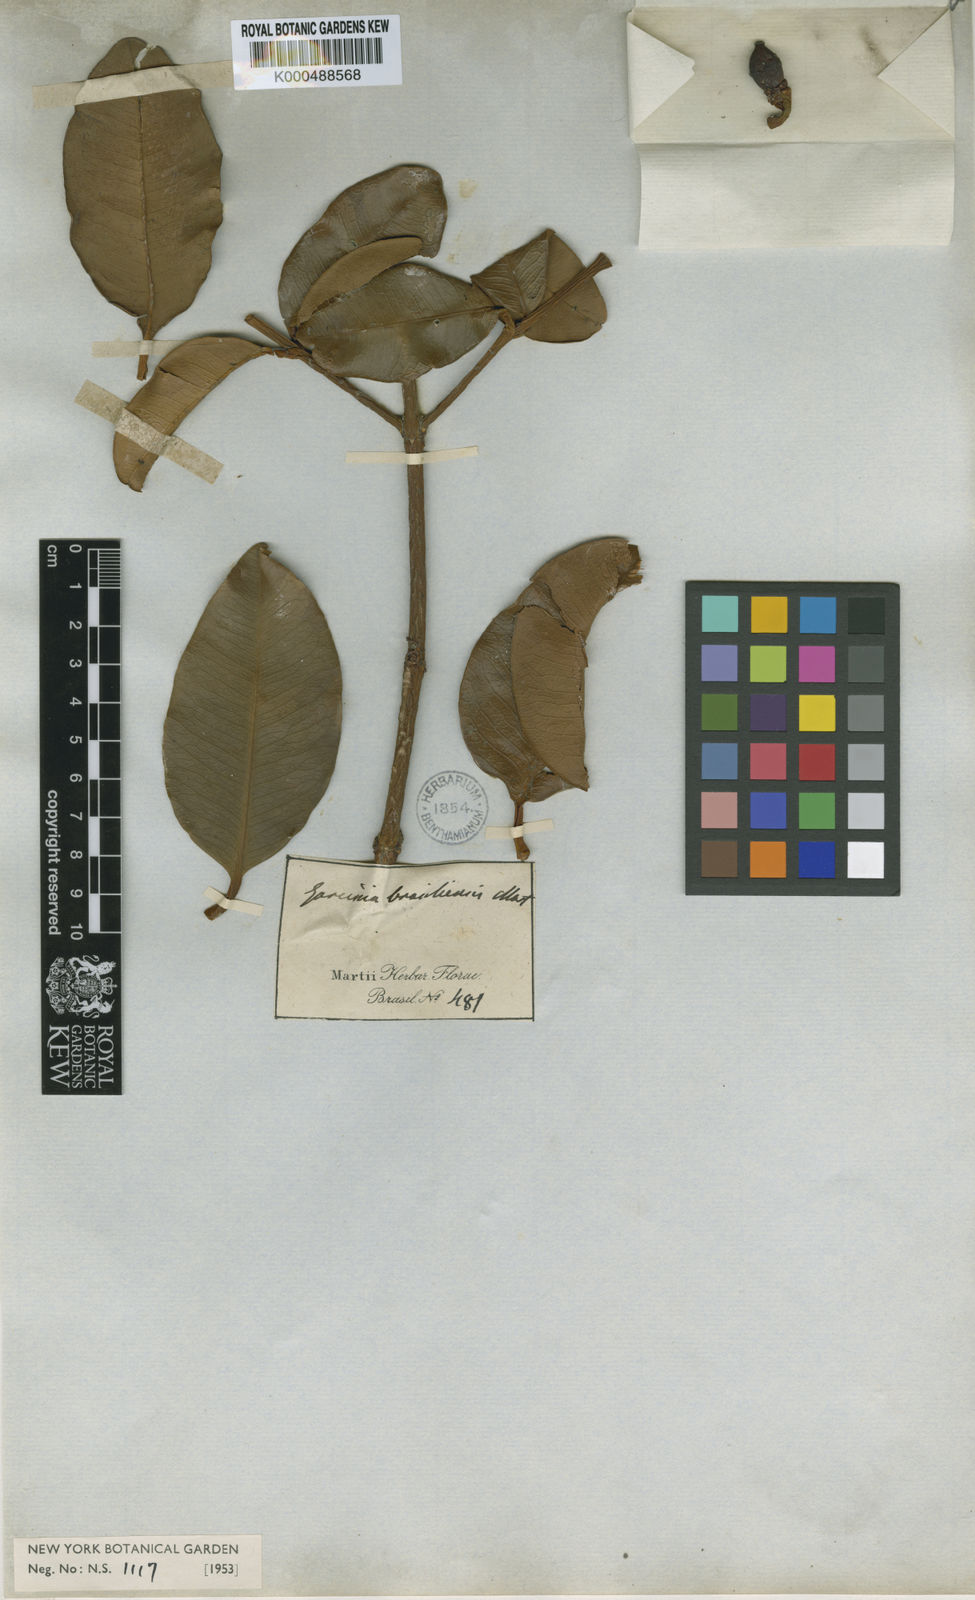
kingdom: Plantae
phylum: Tracheophyta
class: Magnoliopsida
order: Malpighiales
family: Clusiaceae
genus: Garcinia
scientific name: Garcinia brasiliensis
